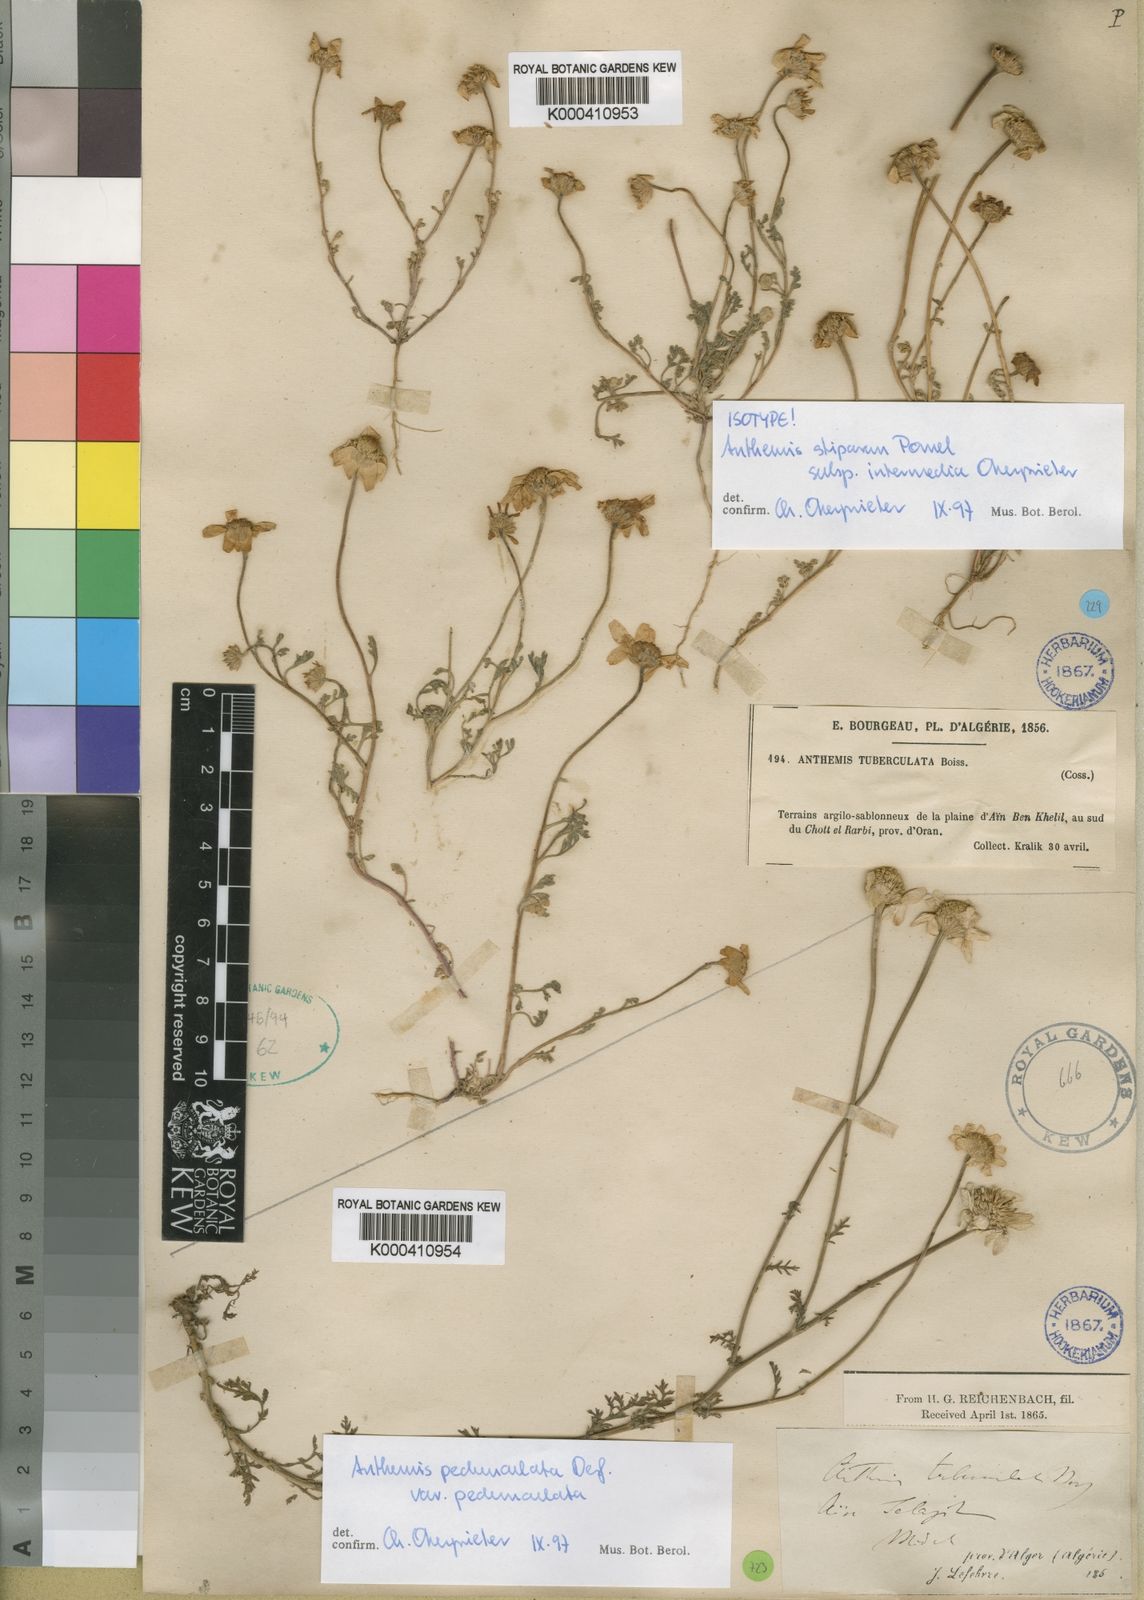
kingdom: Plantae
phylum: Tracheophyta
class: Magnoliopsida
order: Asterales
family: Asteraceae
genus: Anthemis
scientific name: Anthemis stiparum
